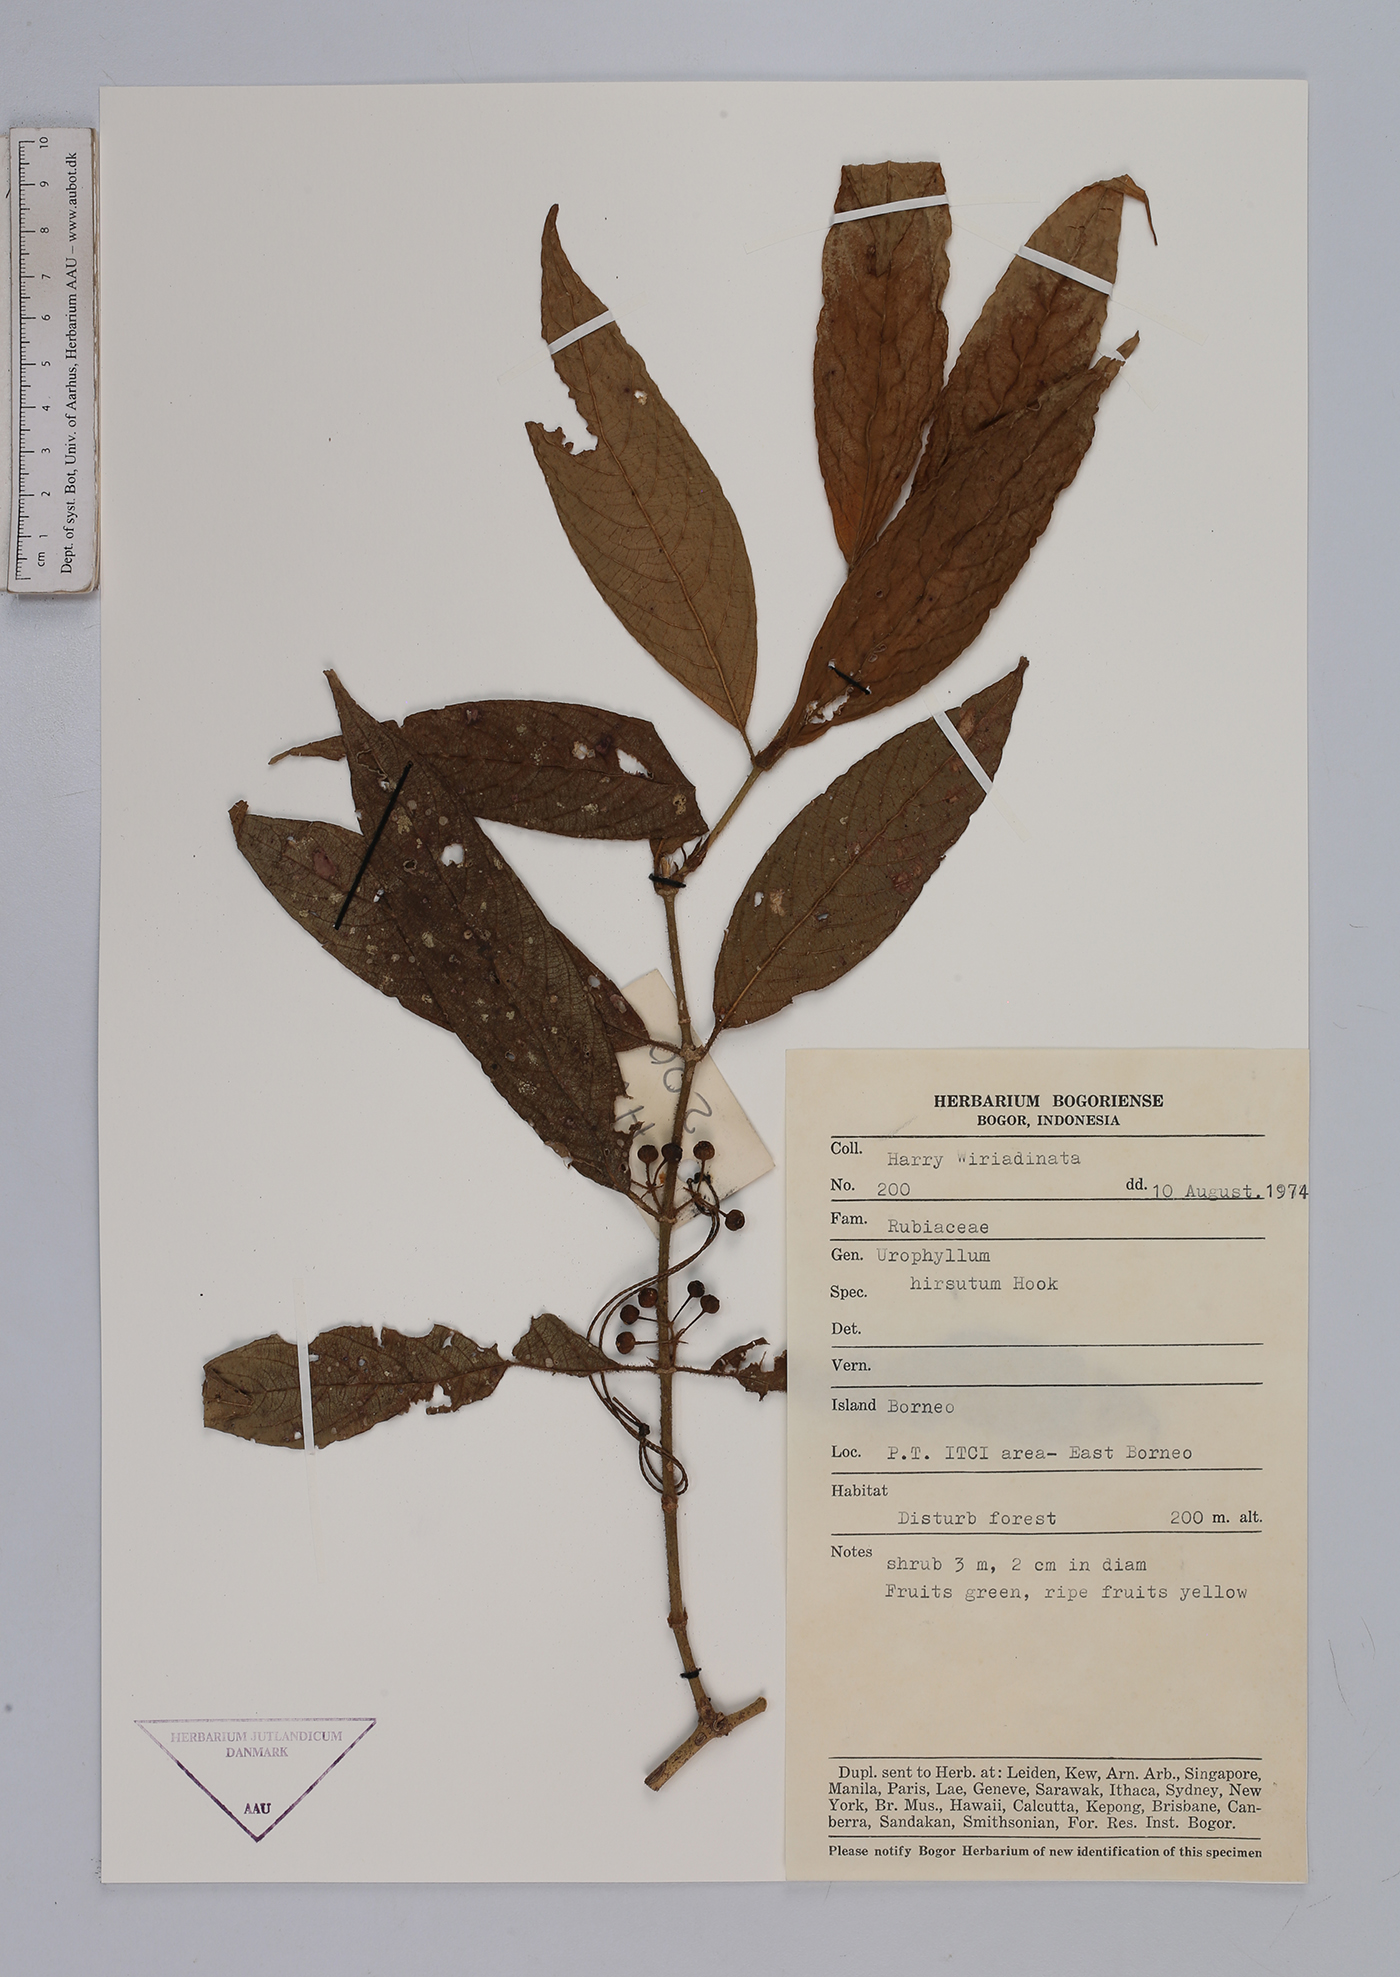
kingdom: Plantae
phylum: Tracheophyta
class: Magnoliopsida
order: Gentianales
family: Rubiaceae
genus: Urophyllum
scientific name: Urophyllum
